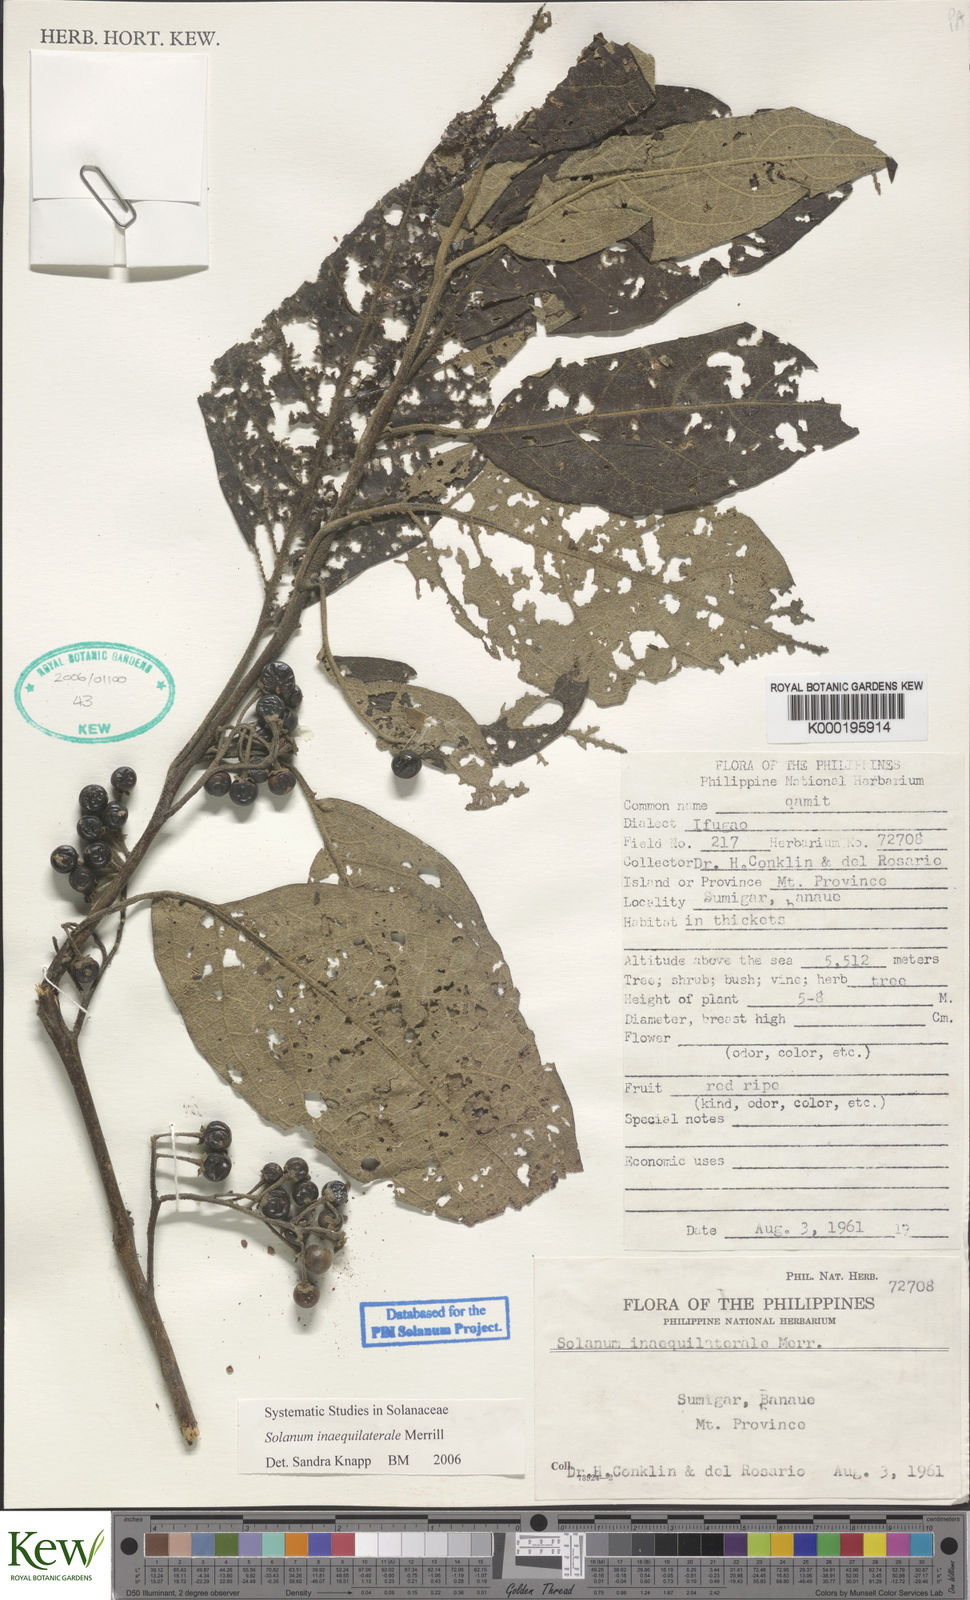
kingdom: Plantae
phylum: Tracheophyta
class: Magnoliopsida
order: Solanales
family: Solanaceae
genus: Solanum
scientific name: Solanum pseudosaponaceum
